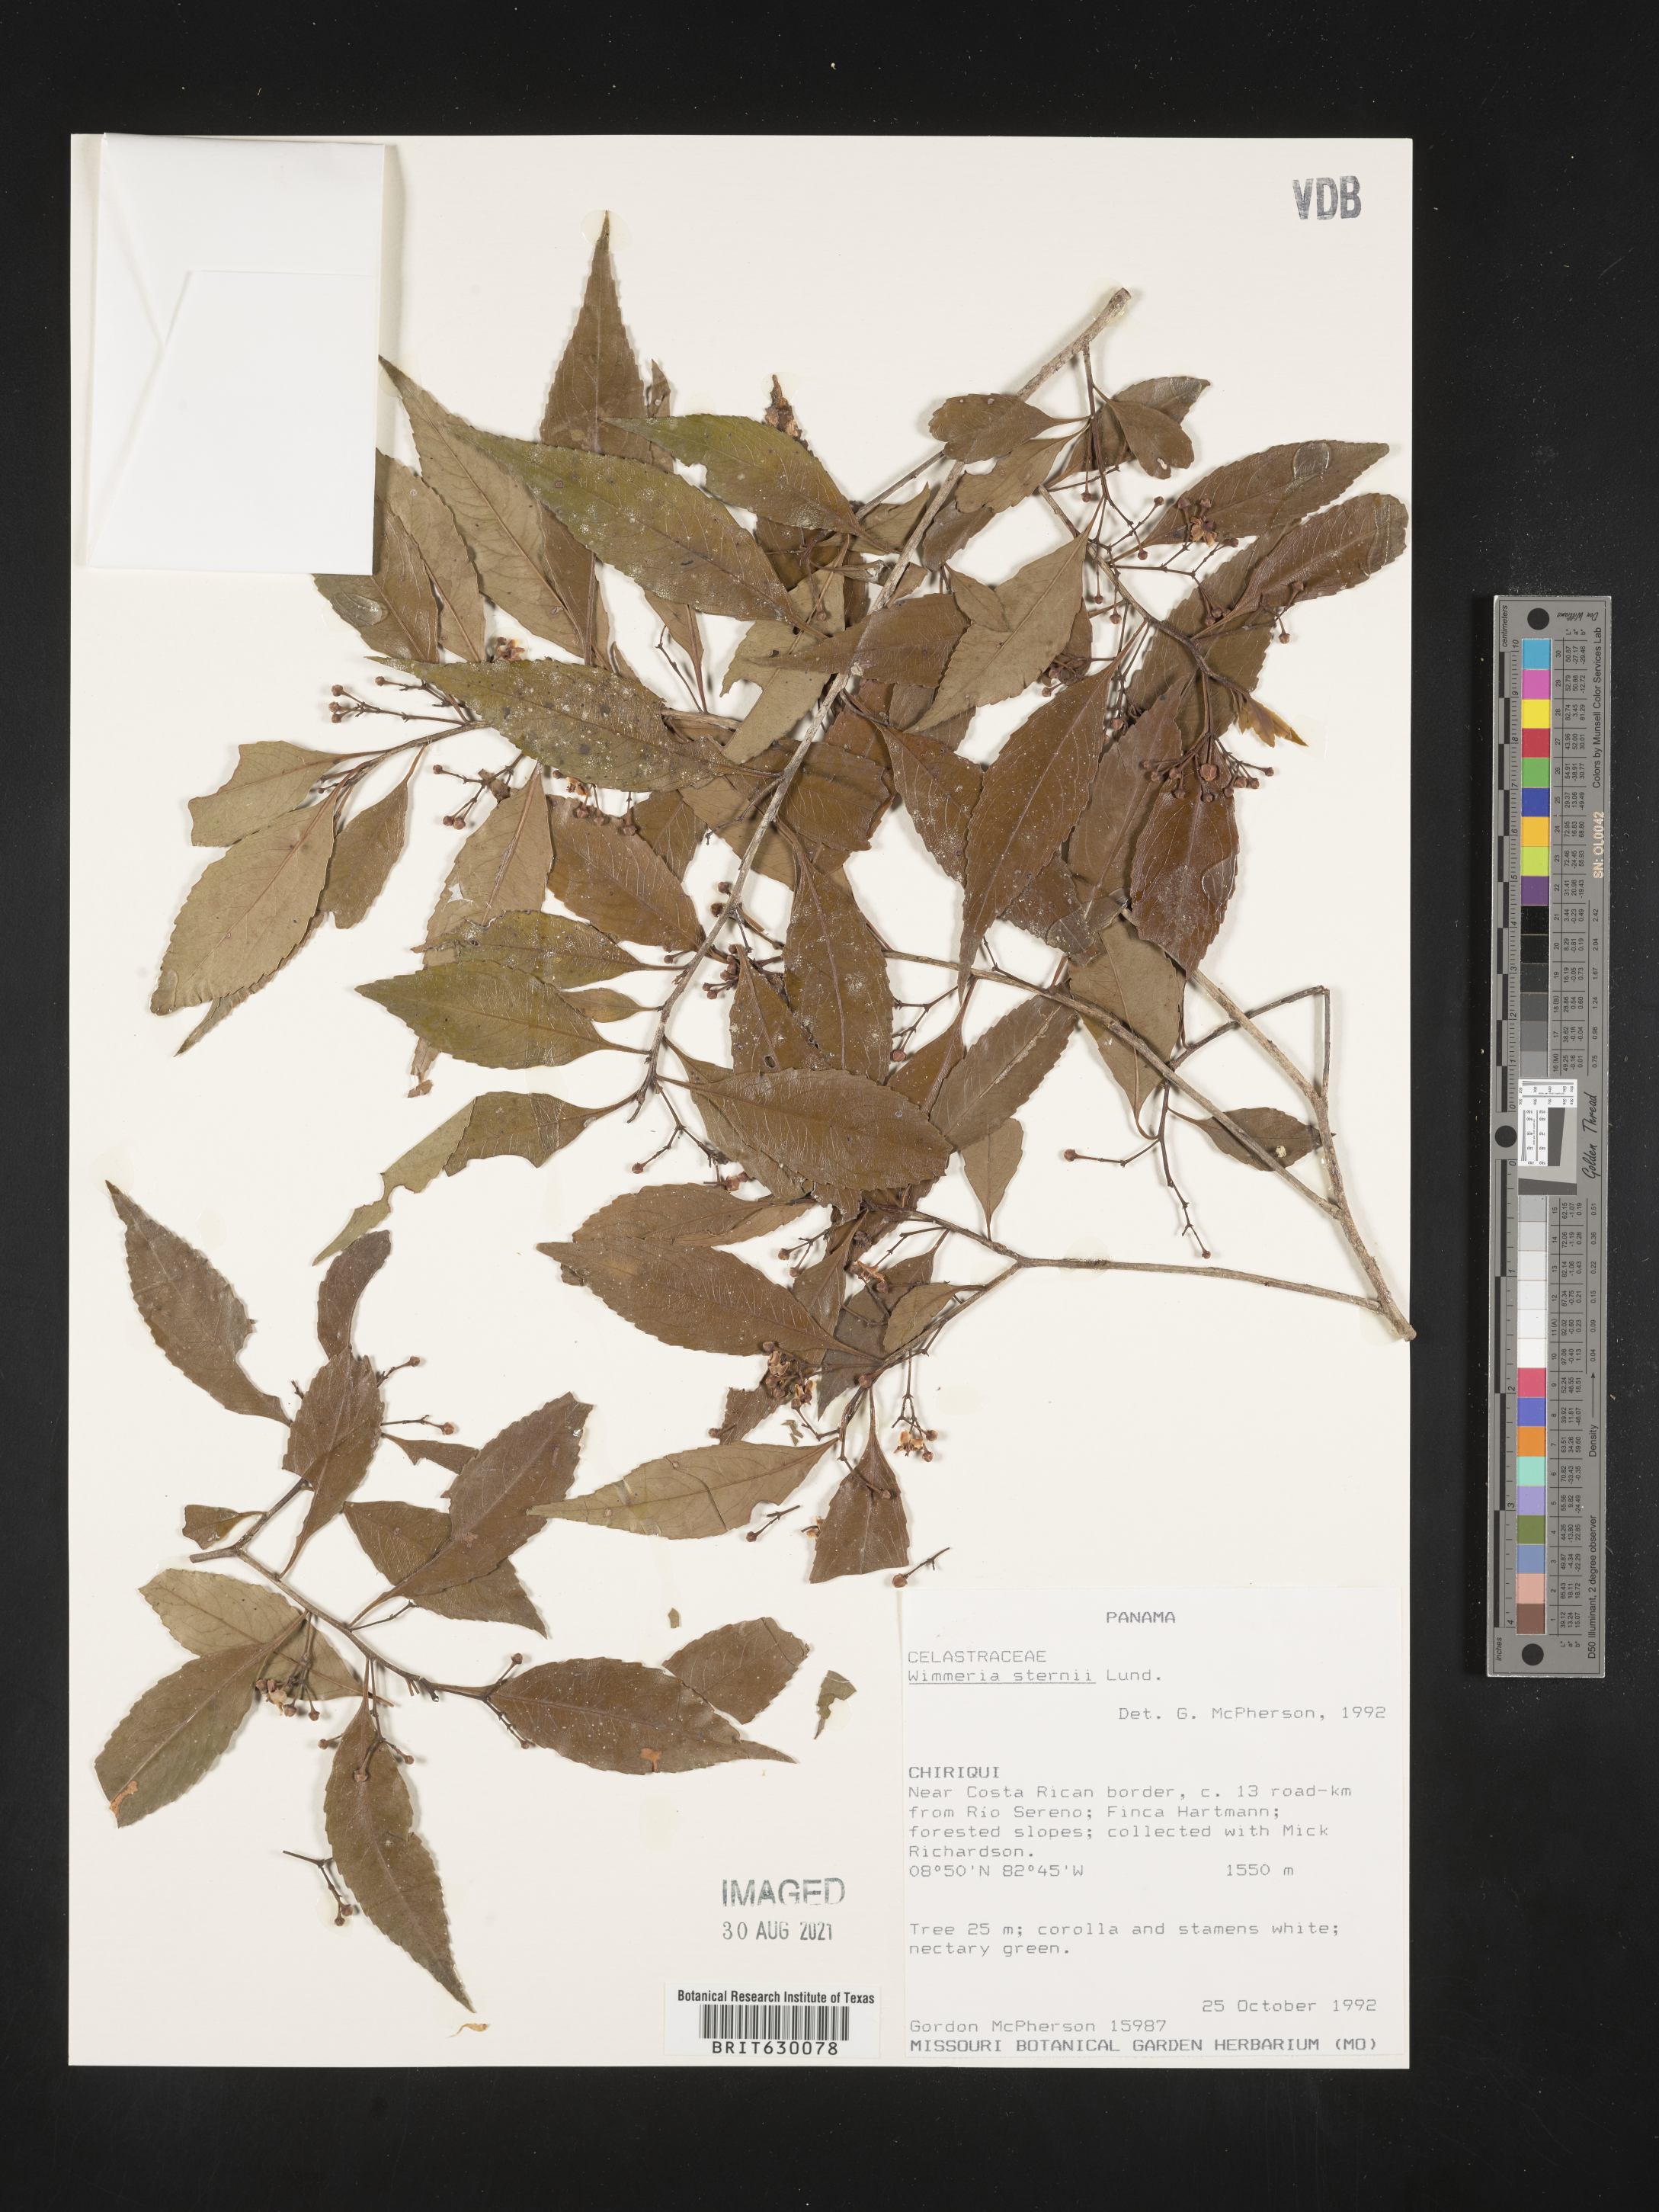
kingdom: Plantae
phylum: Tracheophyta
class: Magnoliopsida
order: Celastrales
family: Celastraceae
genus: Wimmeria
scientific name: Wimmeria sternii
